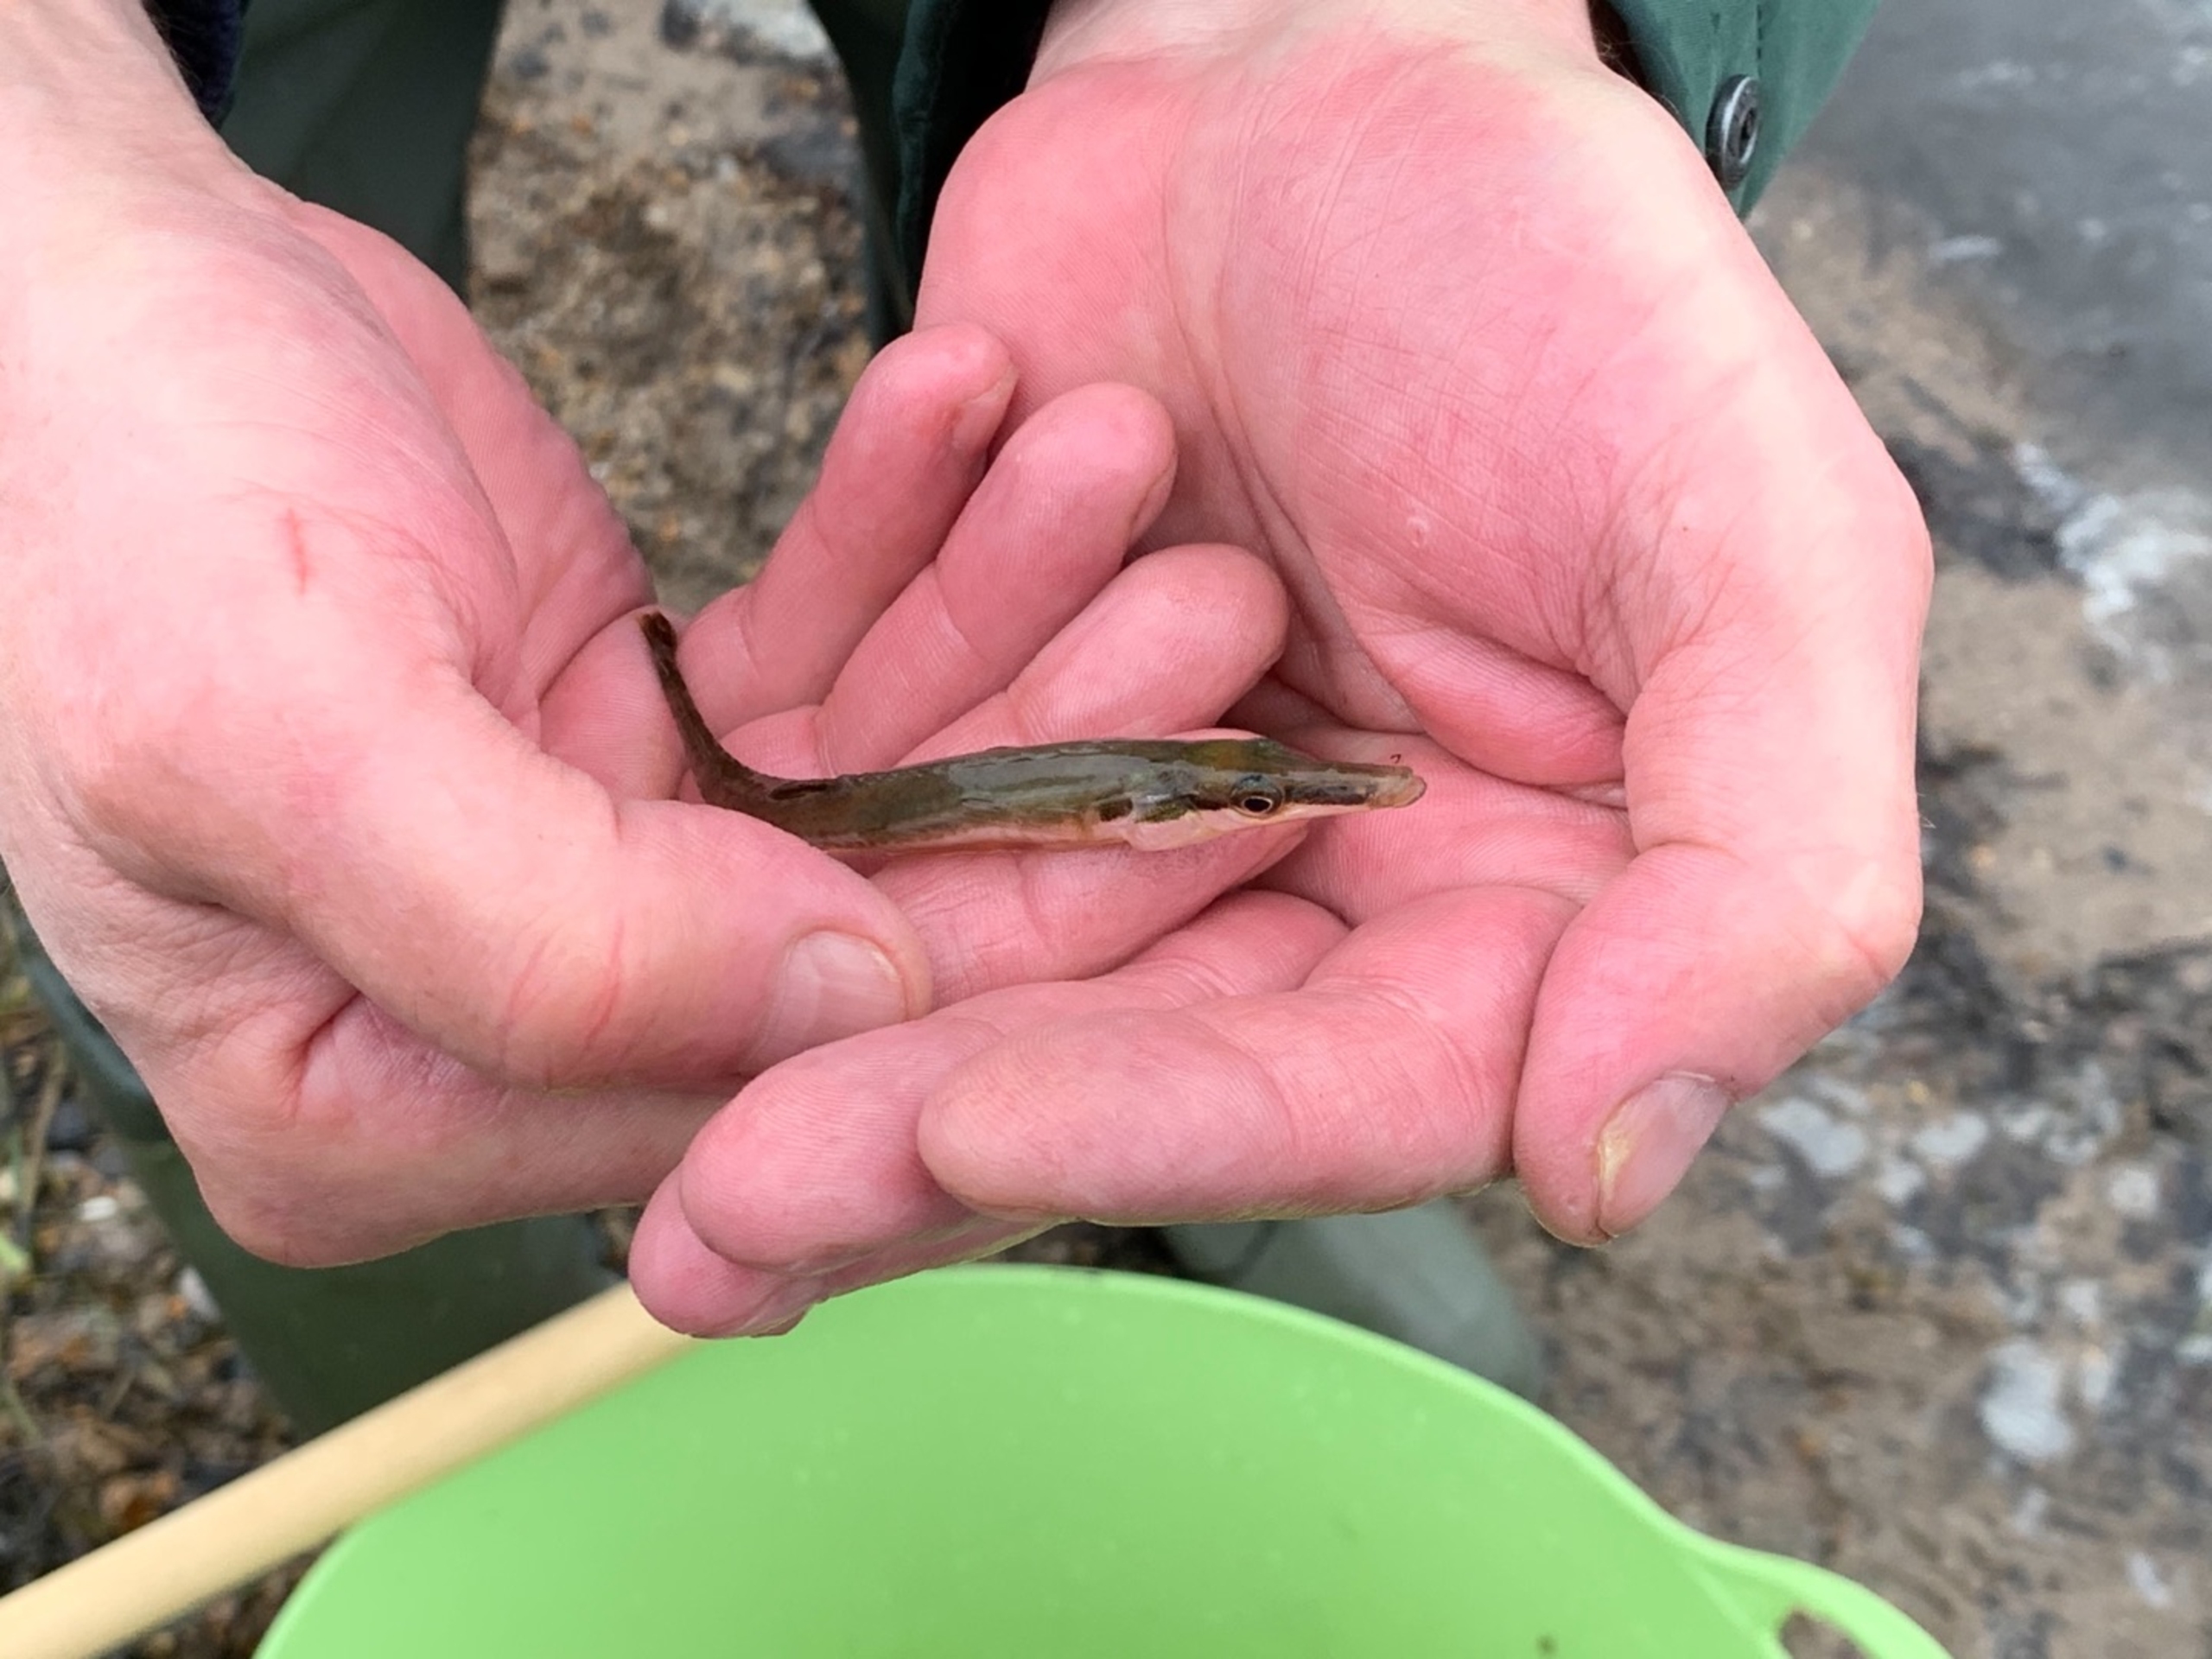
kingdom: Animalia
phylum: Chordata
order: Gasterosteiformes
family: Gasterosteidae
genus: Spinachia
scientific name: Spinachia spinachia
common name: Tangsnarre
